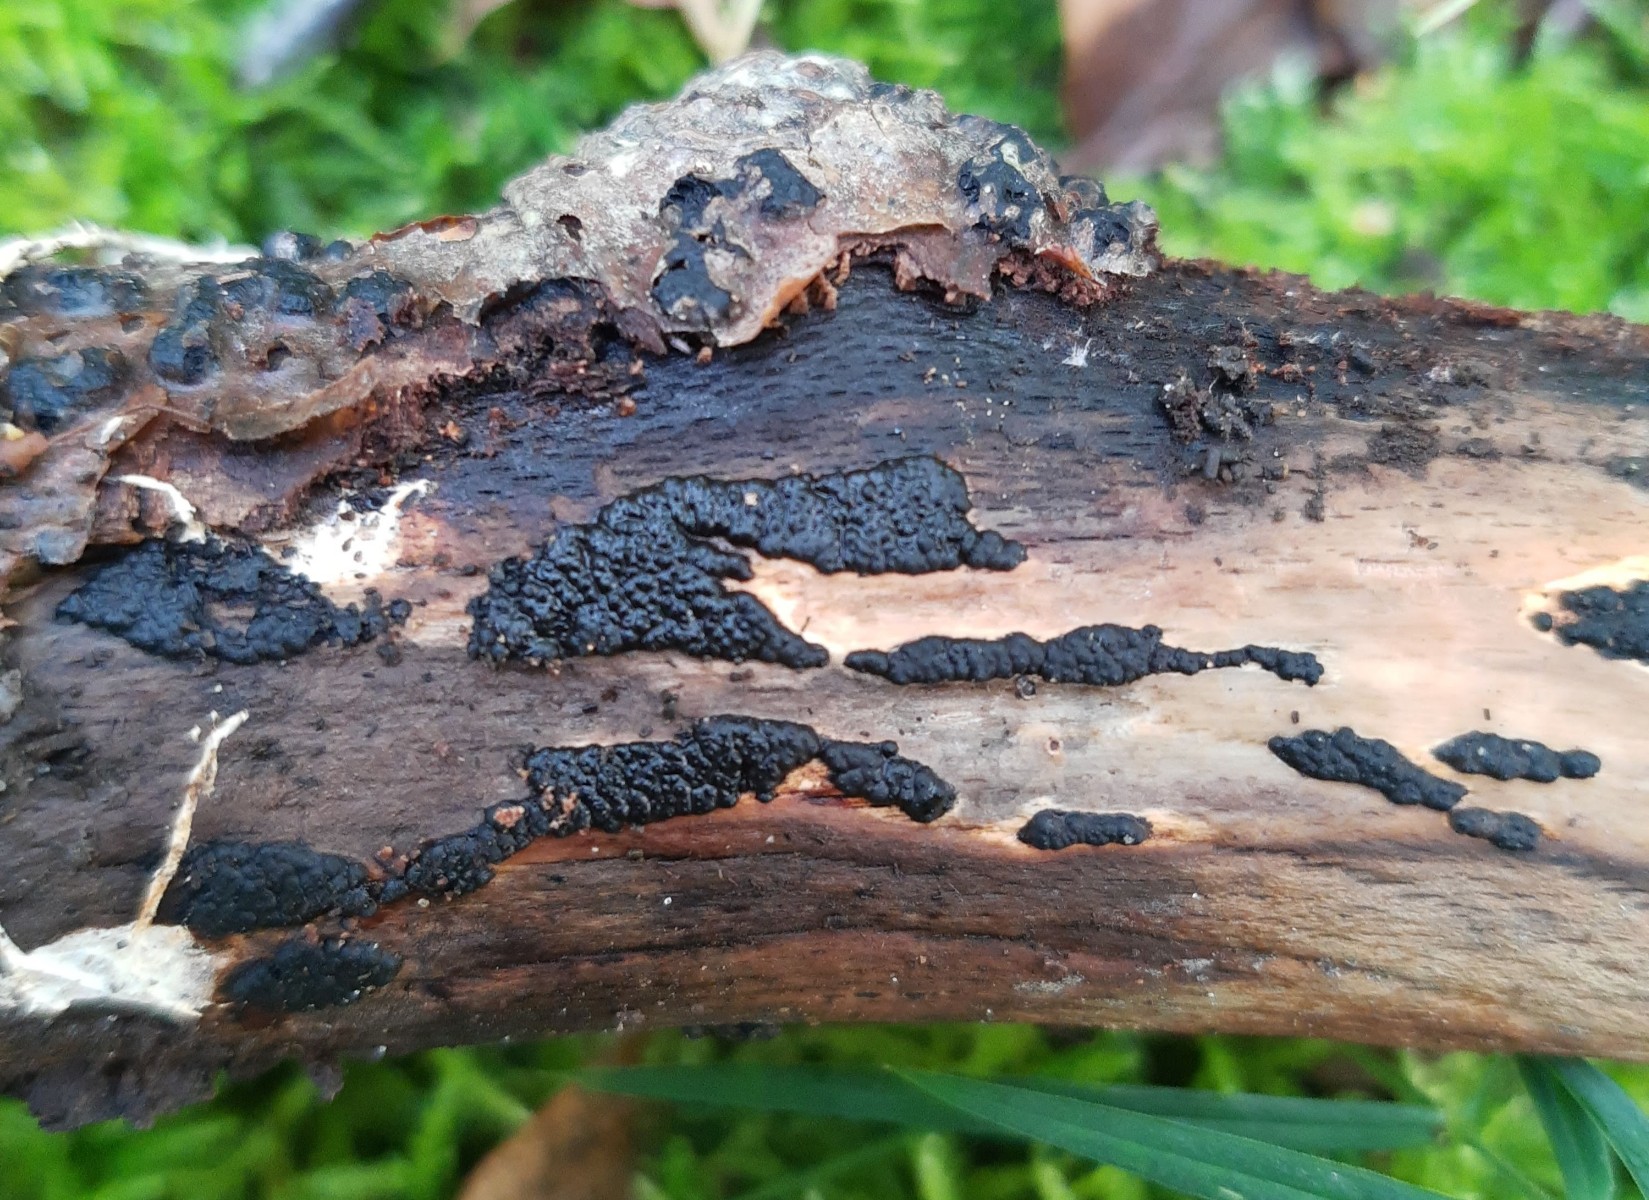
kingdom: Fungi
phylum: Ascomycota
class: Sordariomycetes
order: Xylariales
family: Xylariaceae
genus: Nemania
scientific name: Nemania serpens
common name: almindelig kuldyne
